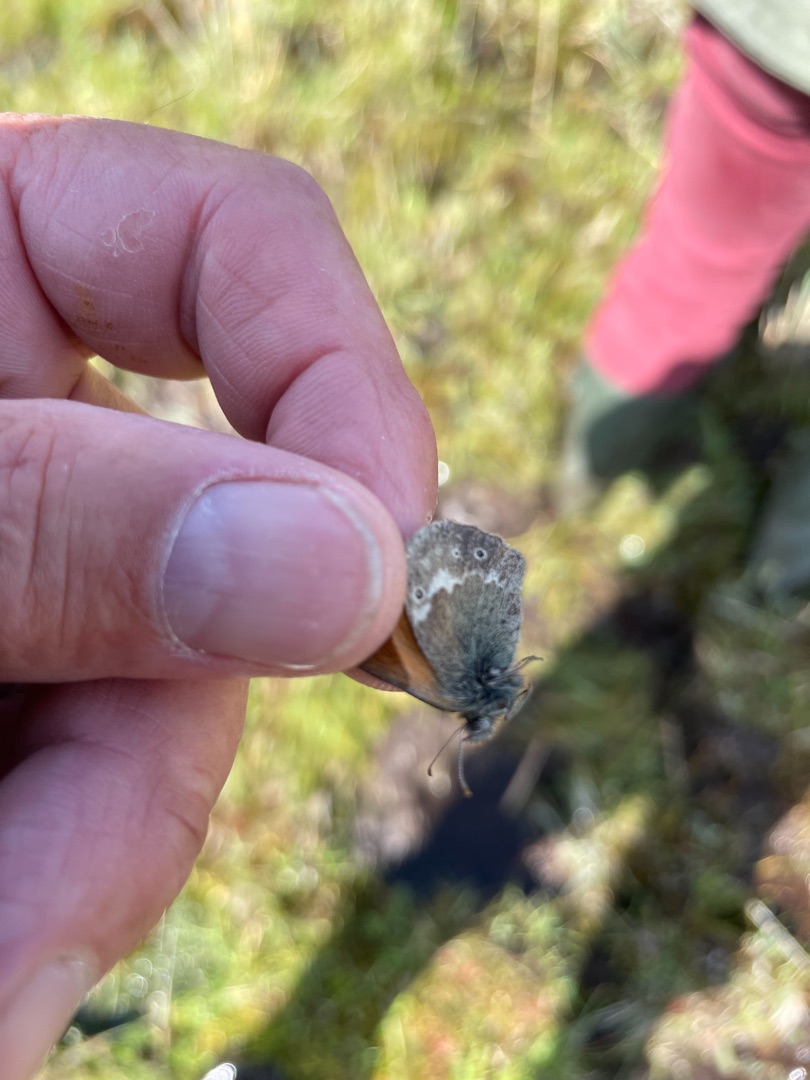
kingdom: Animalia
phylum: Arthropoda
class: Insecta
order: Lepidoptera
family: Nymphalidae
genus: Coenonympha
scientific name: Coenonympha tullia
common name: Moserandøje
